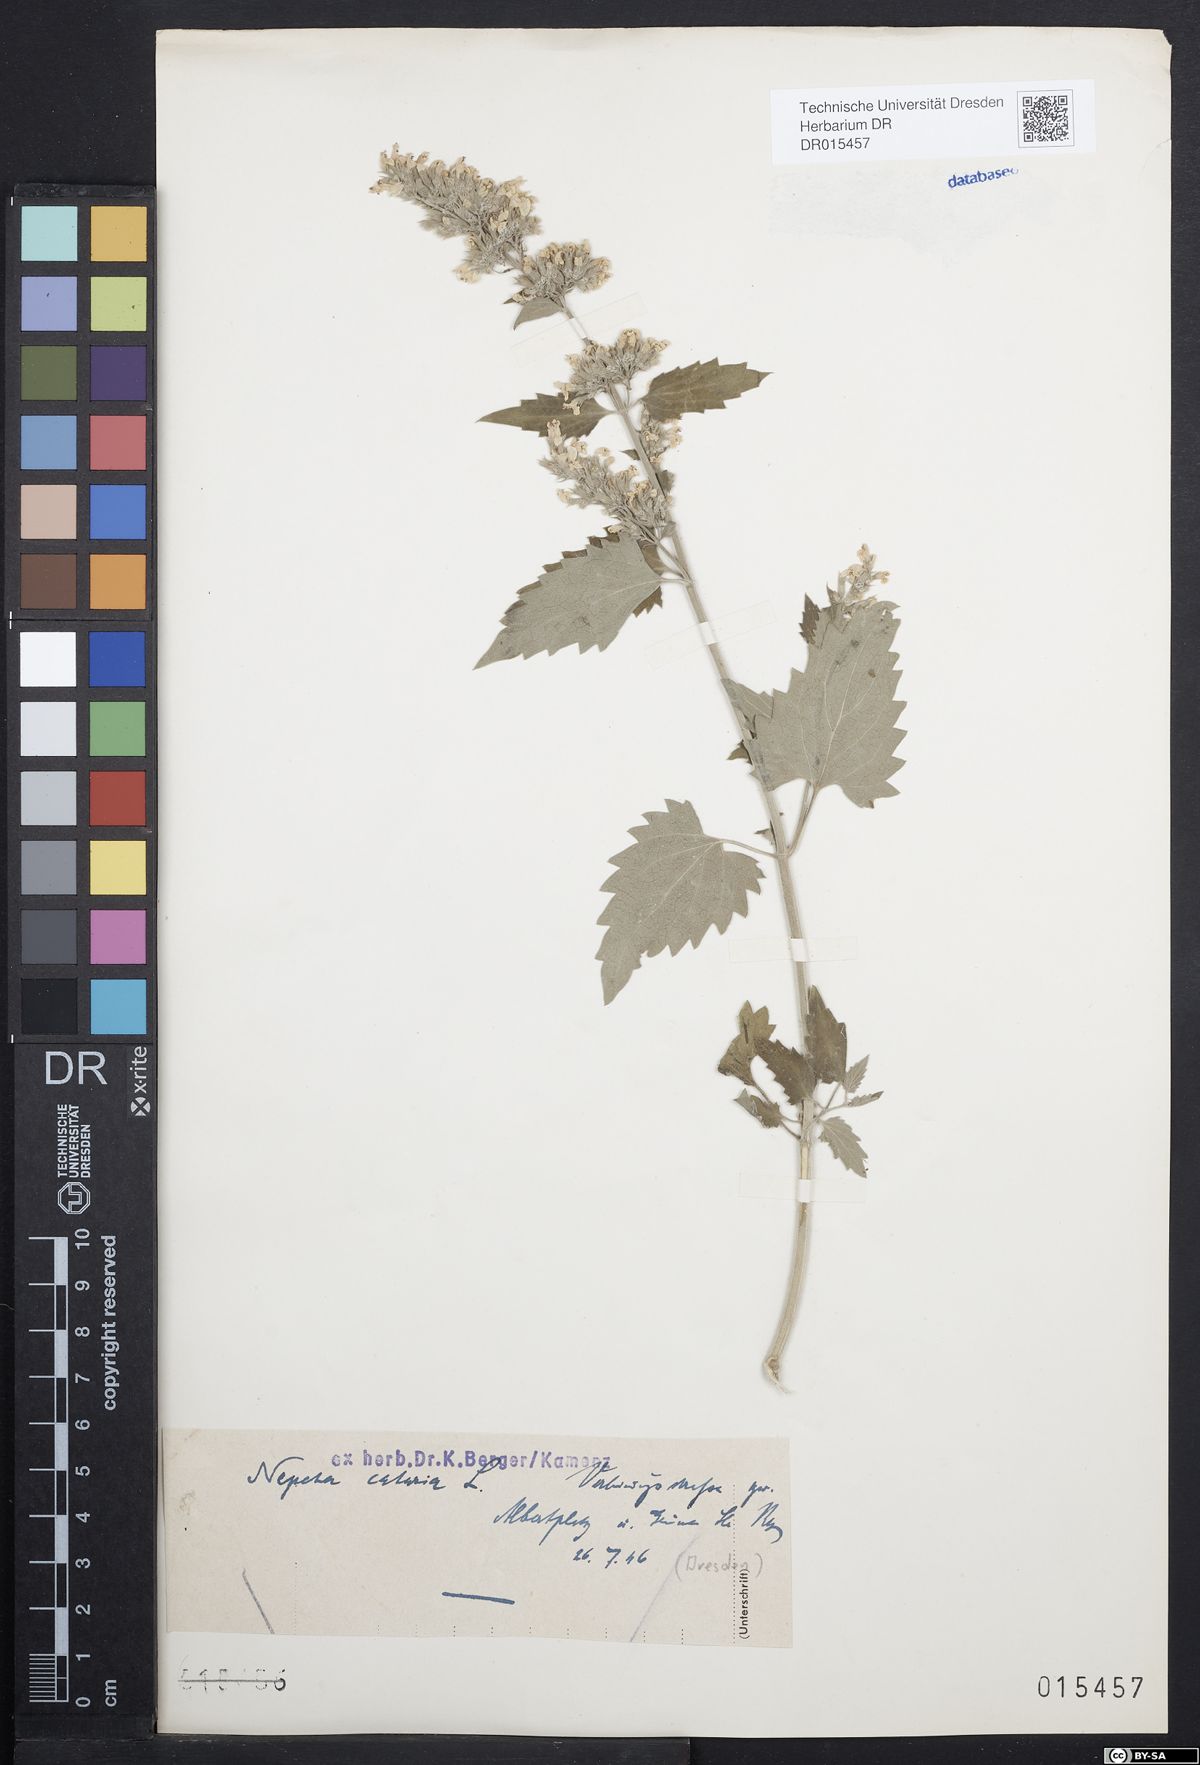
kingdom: Plantae
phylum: Tracheophyta
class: Magnoliopsida
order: Lamiales
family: Lamiaceae
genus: Nepeta
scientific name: Nepeta cataria
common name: Catnip
